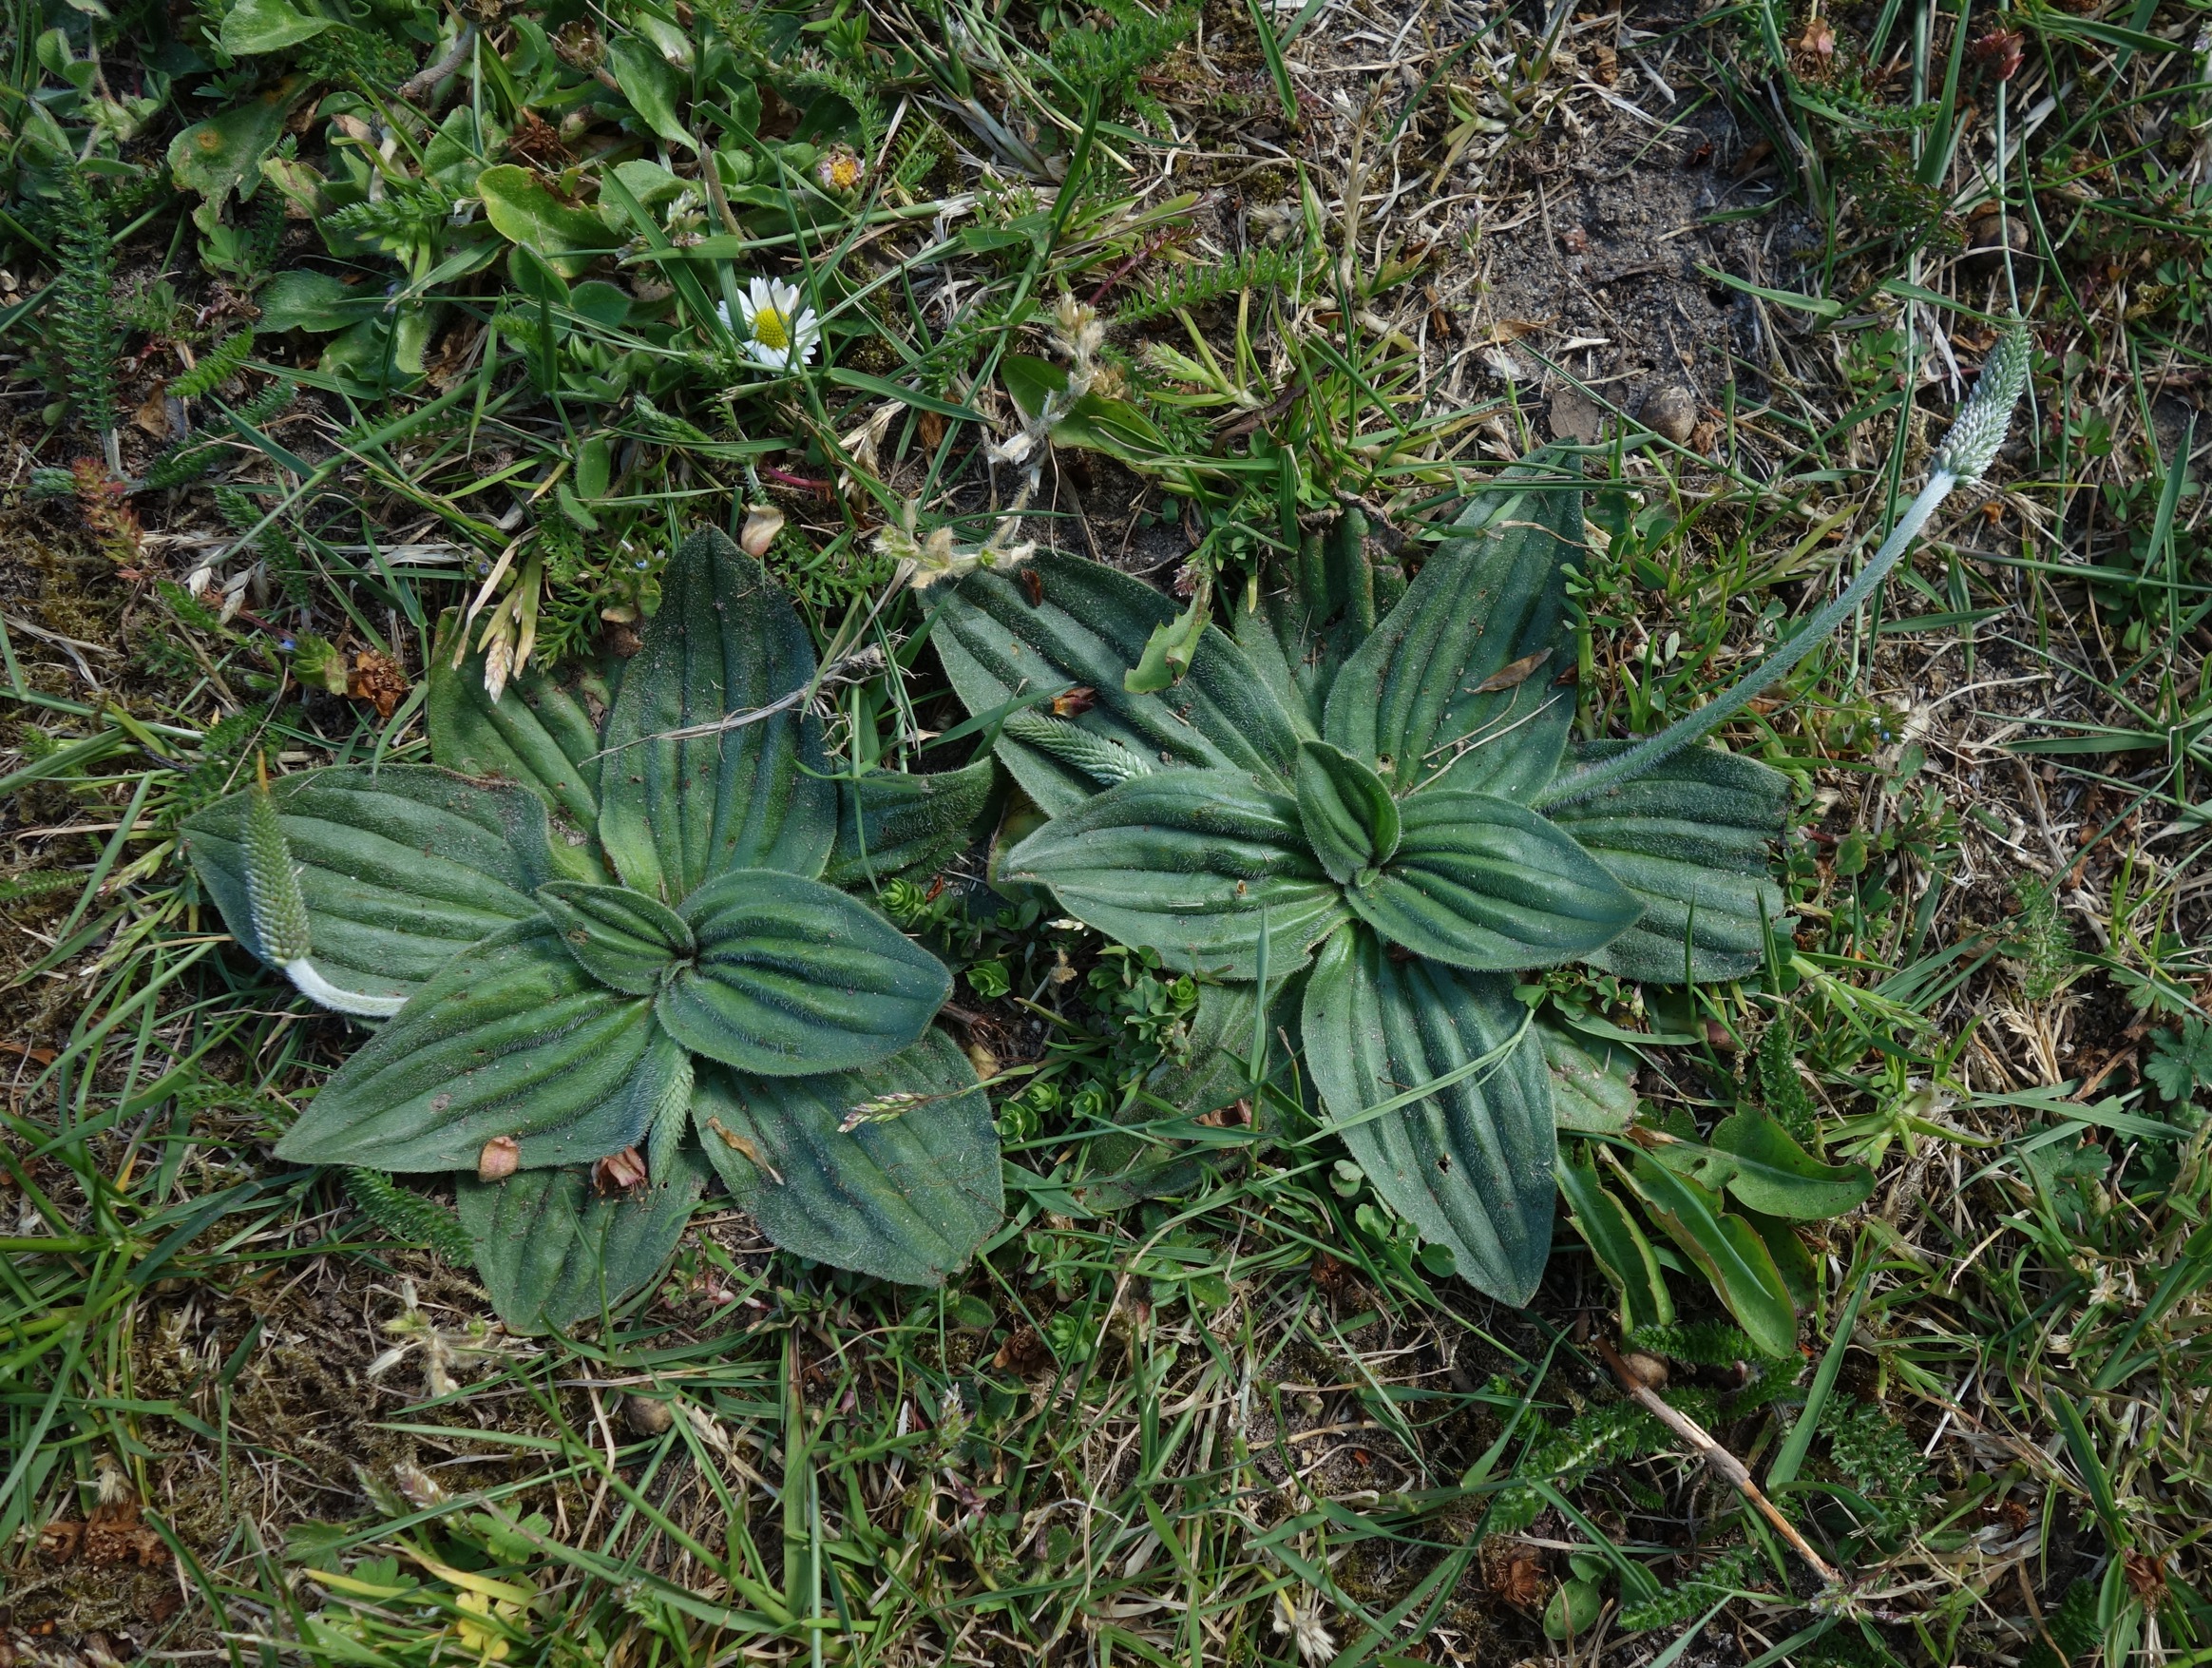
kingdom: Plantae
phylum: Tracheophyta
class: Magnoliopsida
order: Lamiales
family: Plantaginaceae
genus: Plantago
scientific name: Plantago media
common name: Dunet vejbred
